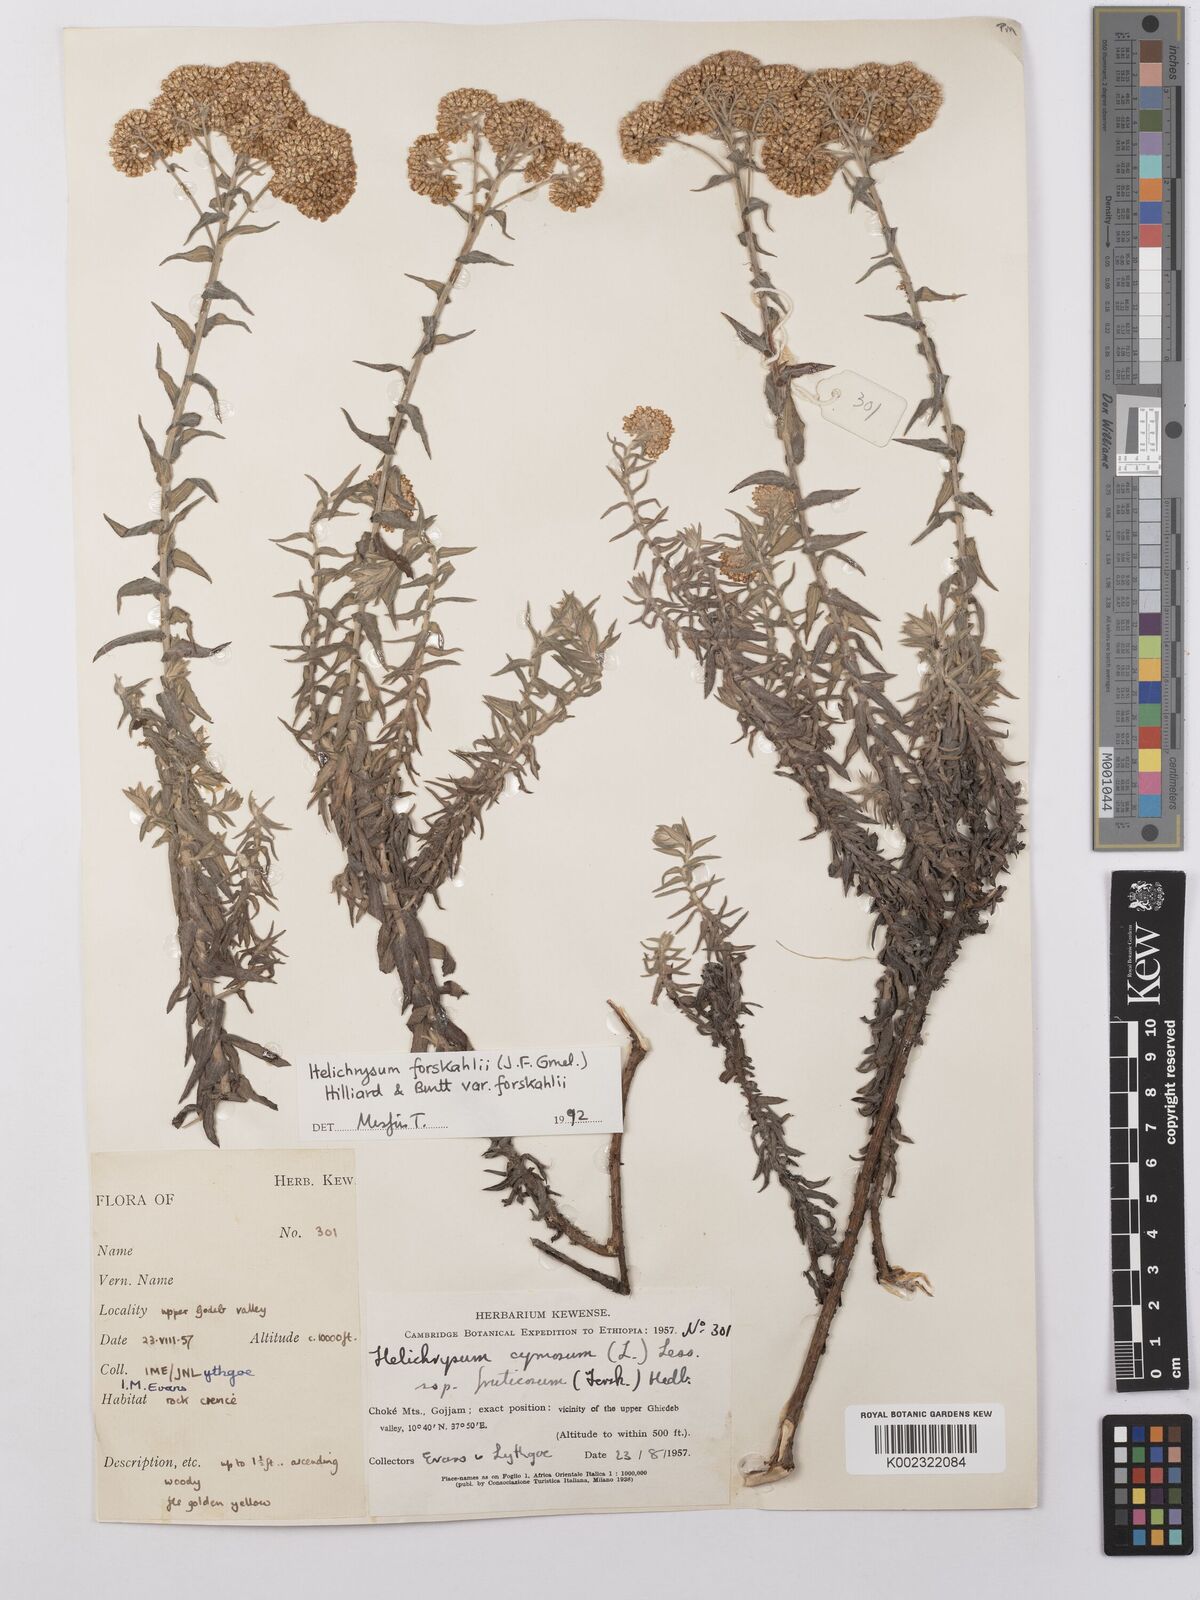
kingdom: Plantae
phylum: Tracheophyta
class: Magnoliopsida
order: Asterales
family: Asteraceae
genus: Helichrysum
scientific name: Helichrysum forskahlii
